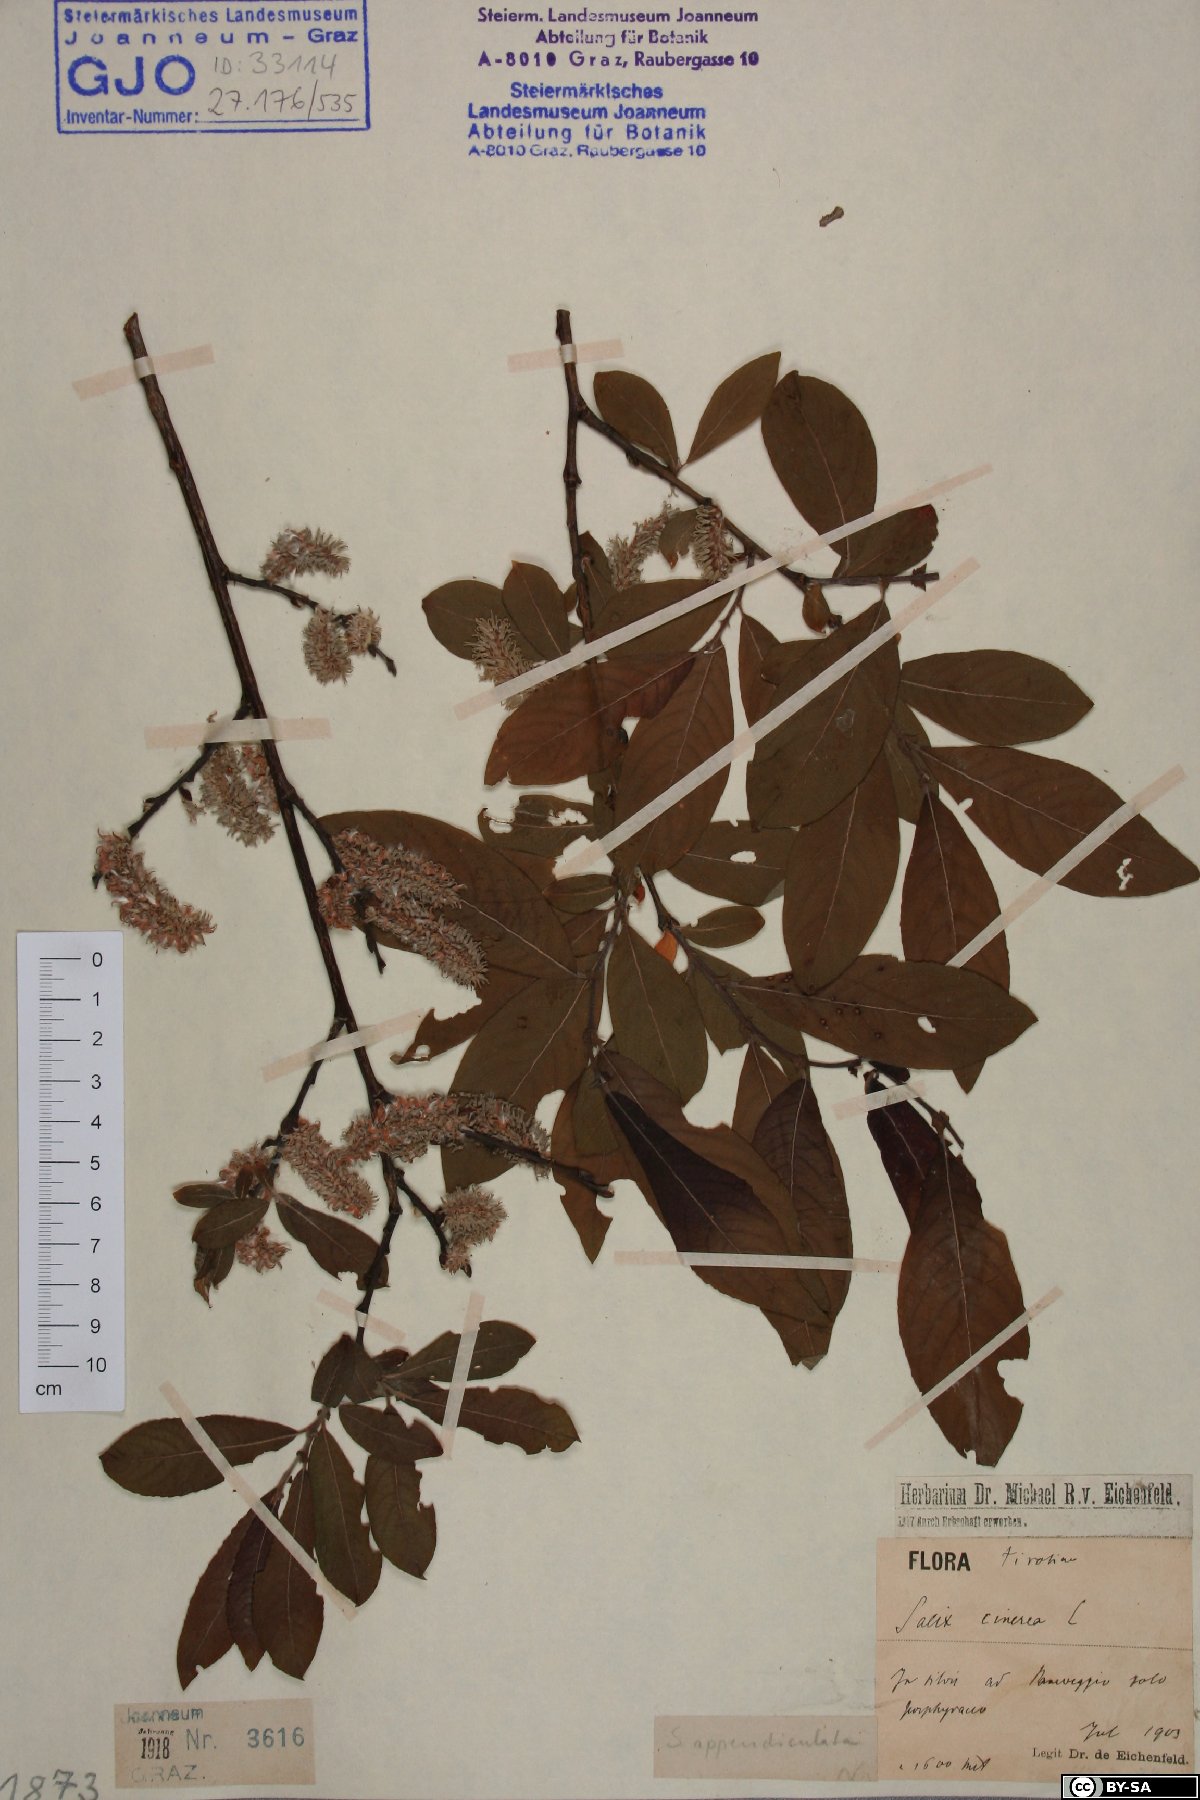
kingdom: Plantae
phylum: Tracheophyta
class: Magnoliopsida
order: Malpighiales
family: Salicaceae
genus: Salix
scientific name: Salix appendiculata
